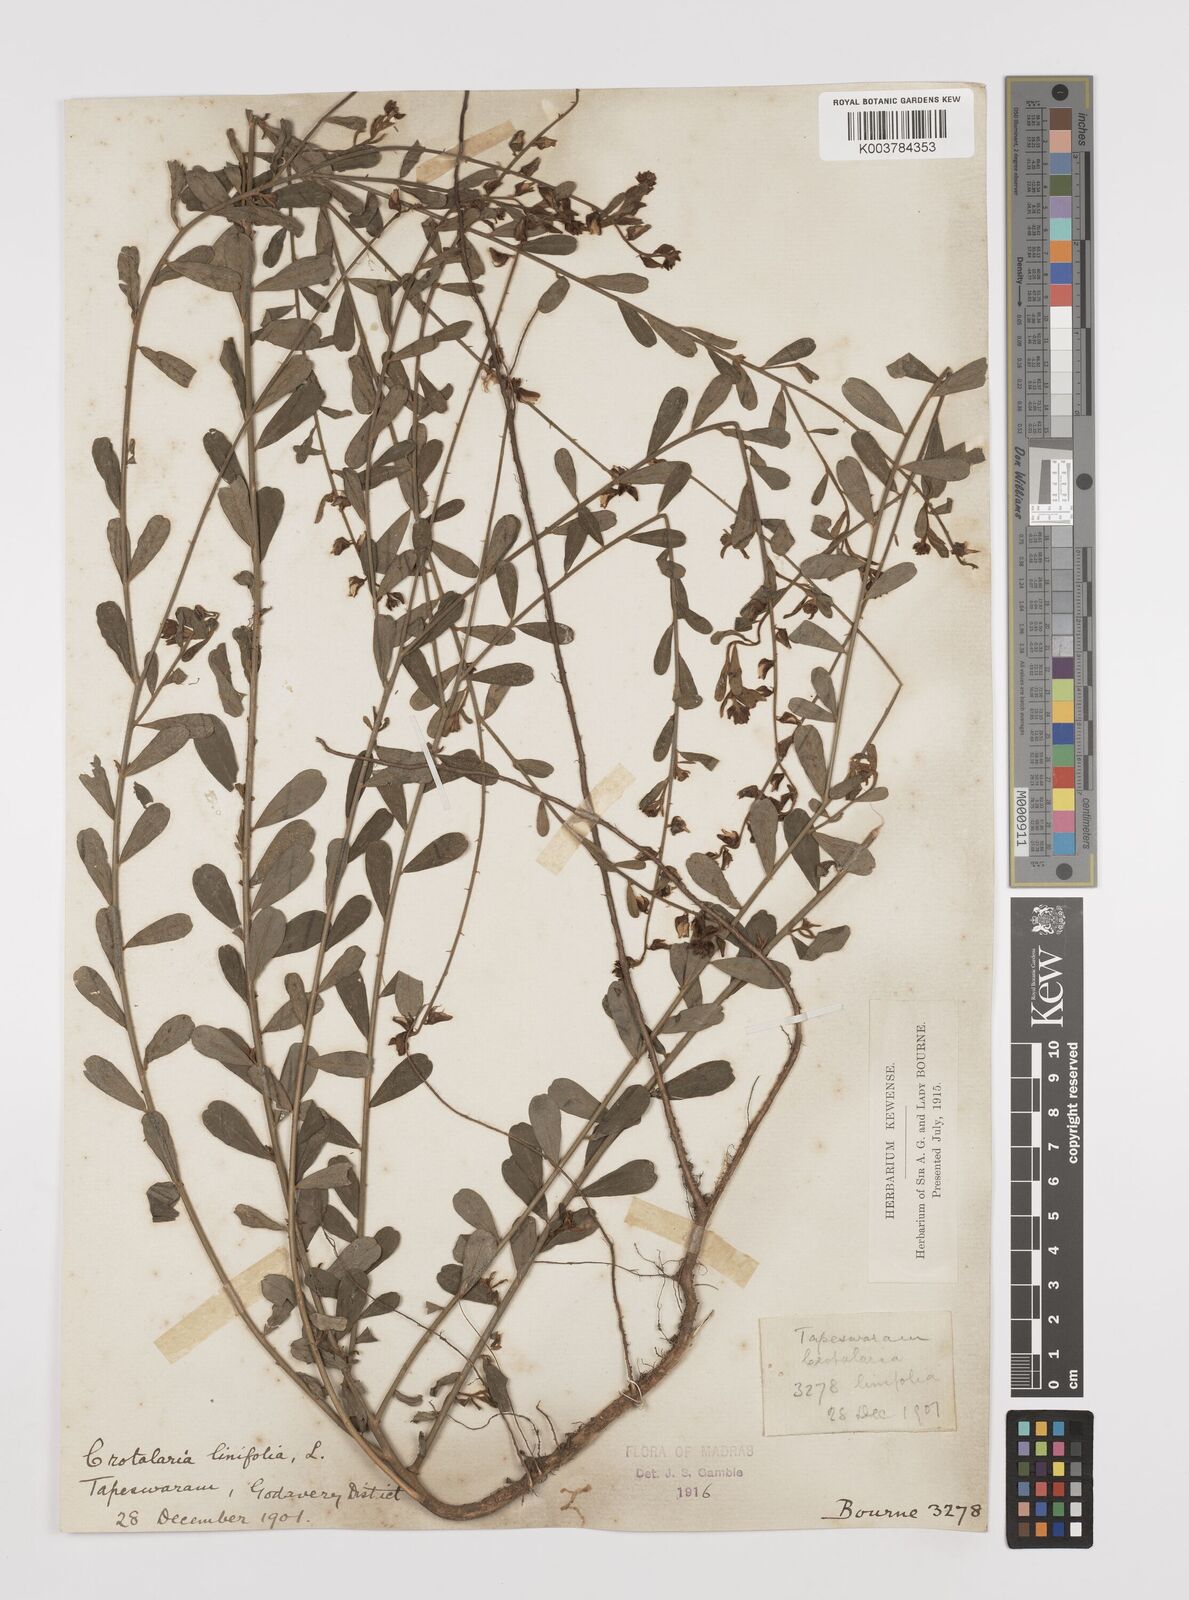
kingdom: Plantae
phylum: Tracheophyta
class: Magnoliopsida
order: Fabales
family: Fabaceae
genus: Crotalaria
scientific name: Crotalaria linifolia
